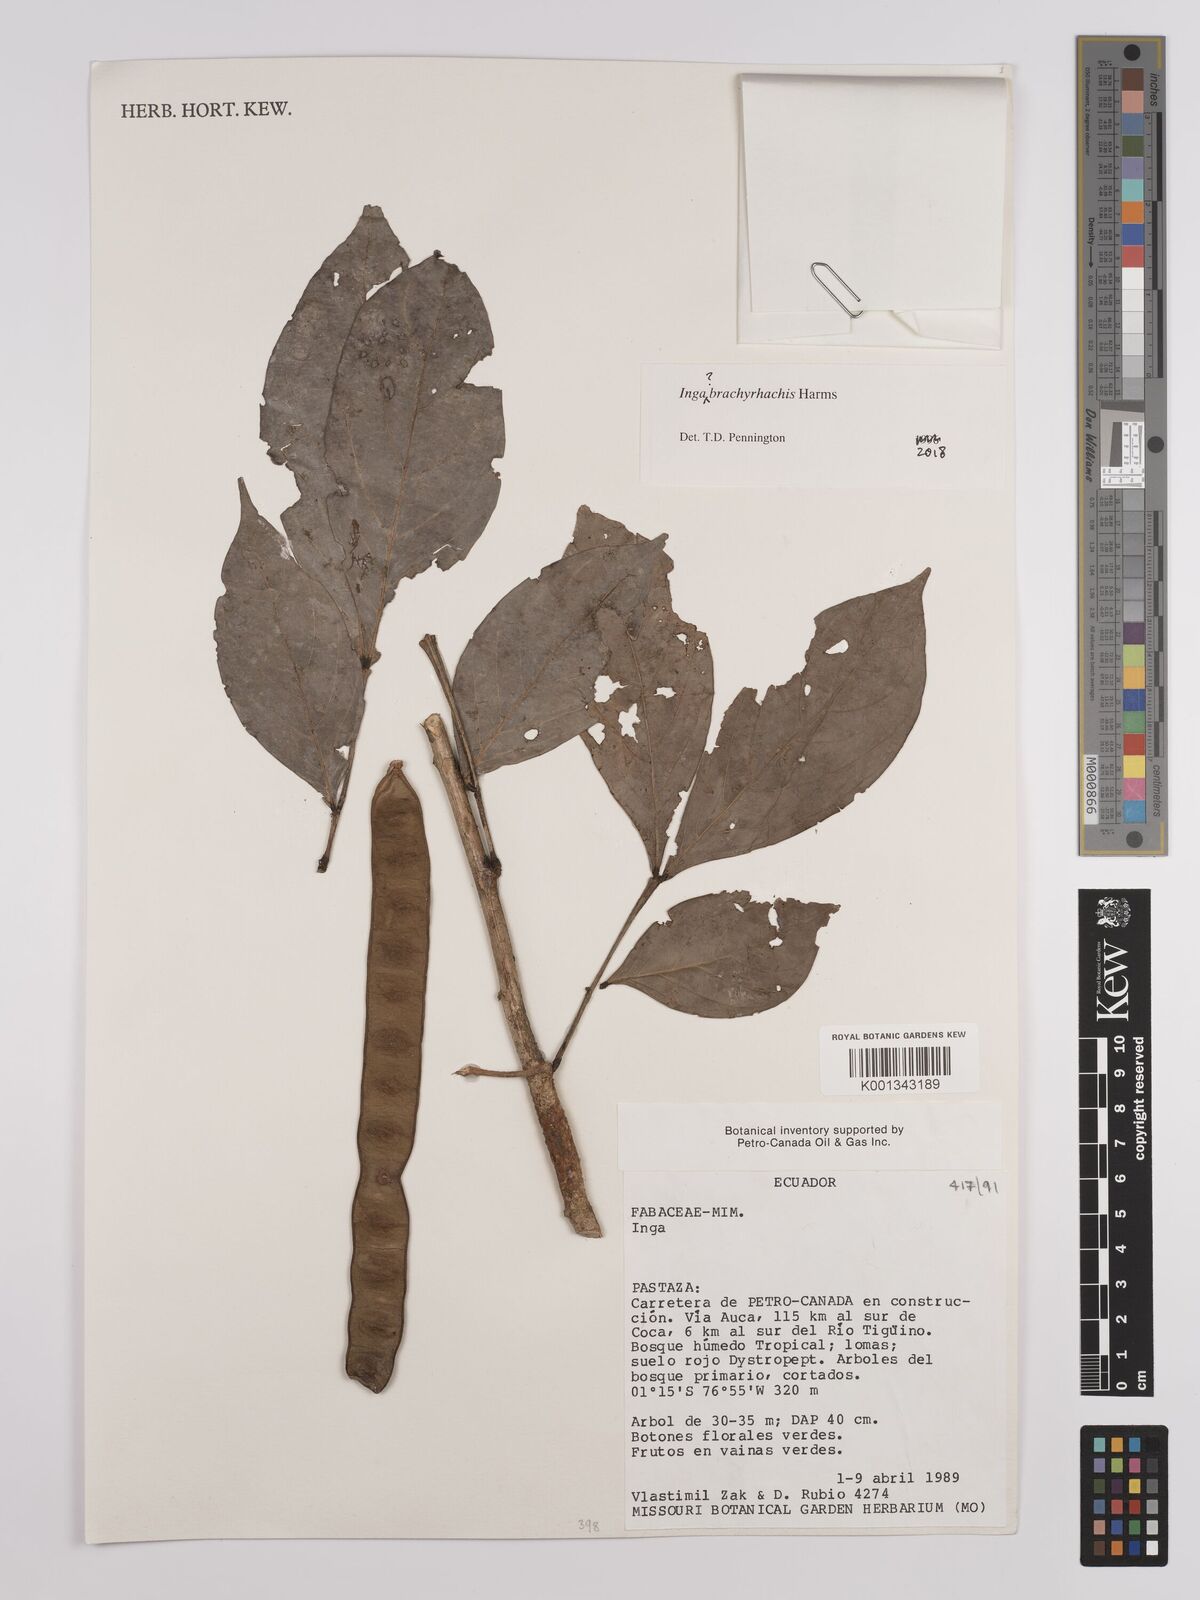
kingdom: Plantae
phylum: Tracheophyta
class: Magnoliopsida
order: Fabales
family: Fabaceae
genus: Inga
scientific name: Inga brachyrhachis
